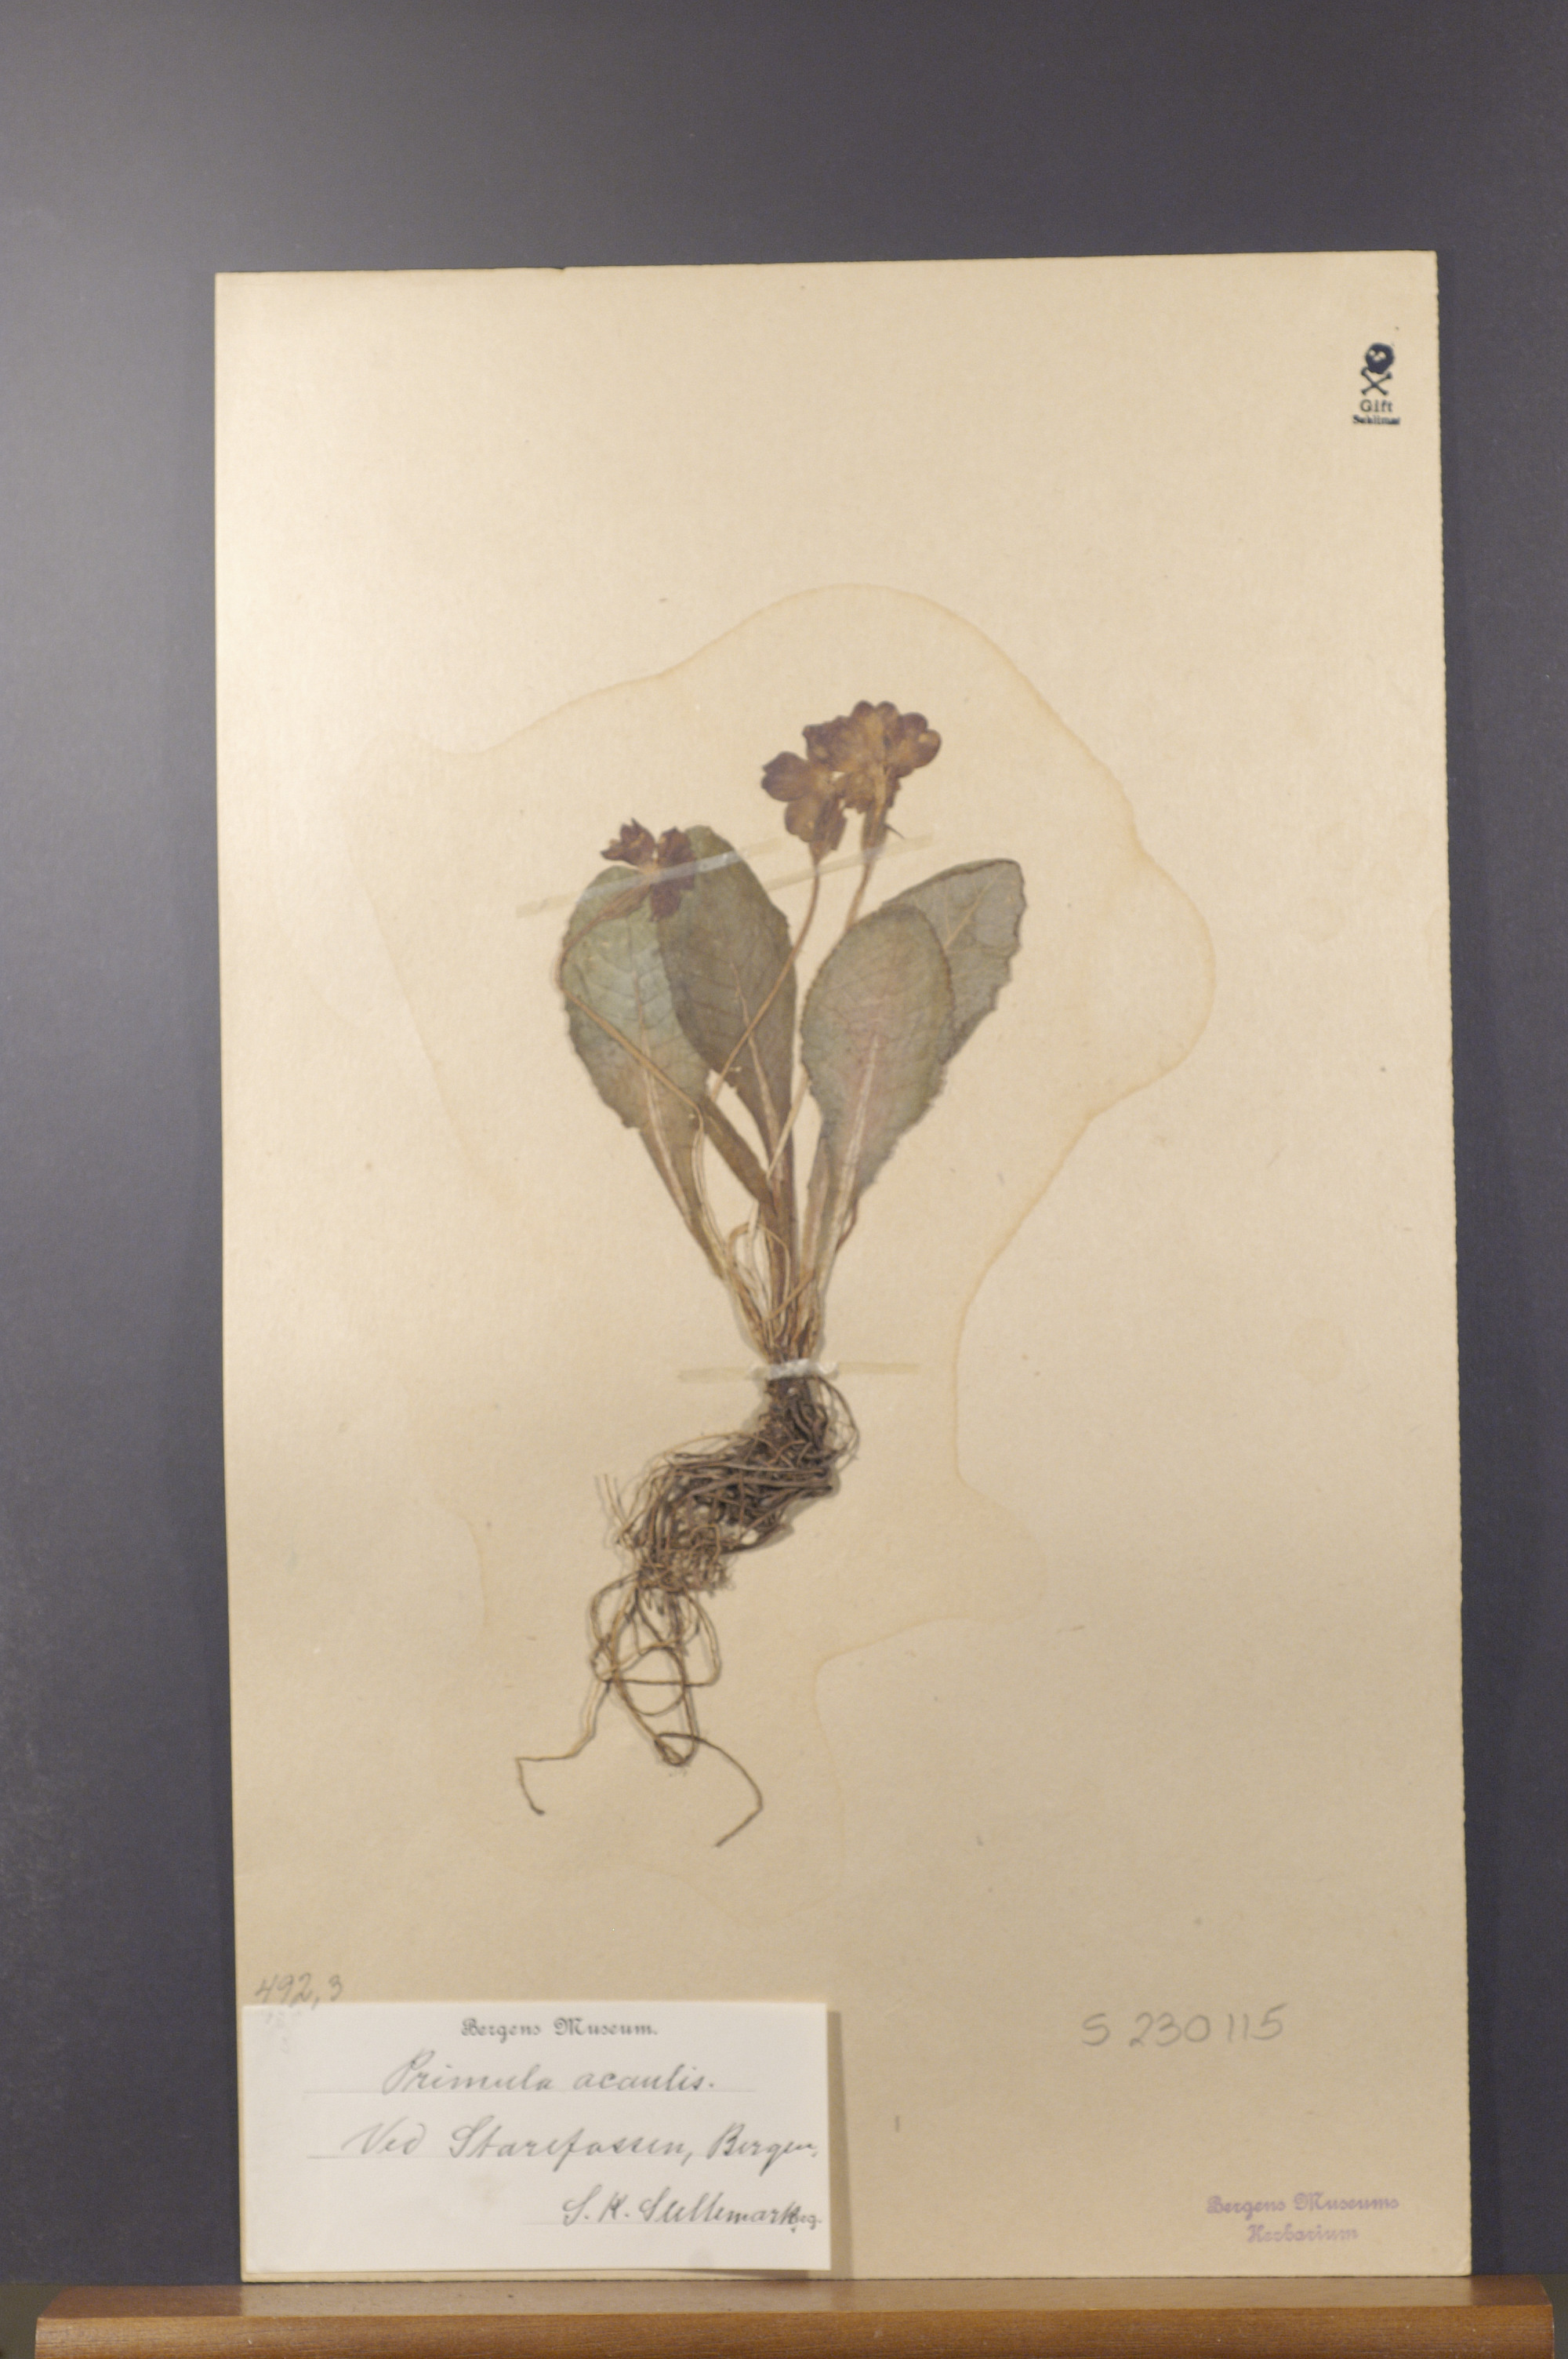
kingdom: Plantae
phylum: Tracheophyta
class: Magnoliopsida
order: Ericales
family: Primulaceae
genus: Primula
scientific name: Primula vulgaris
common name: Primrose
